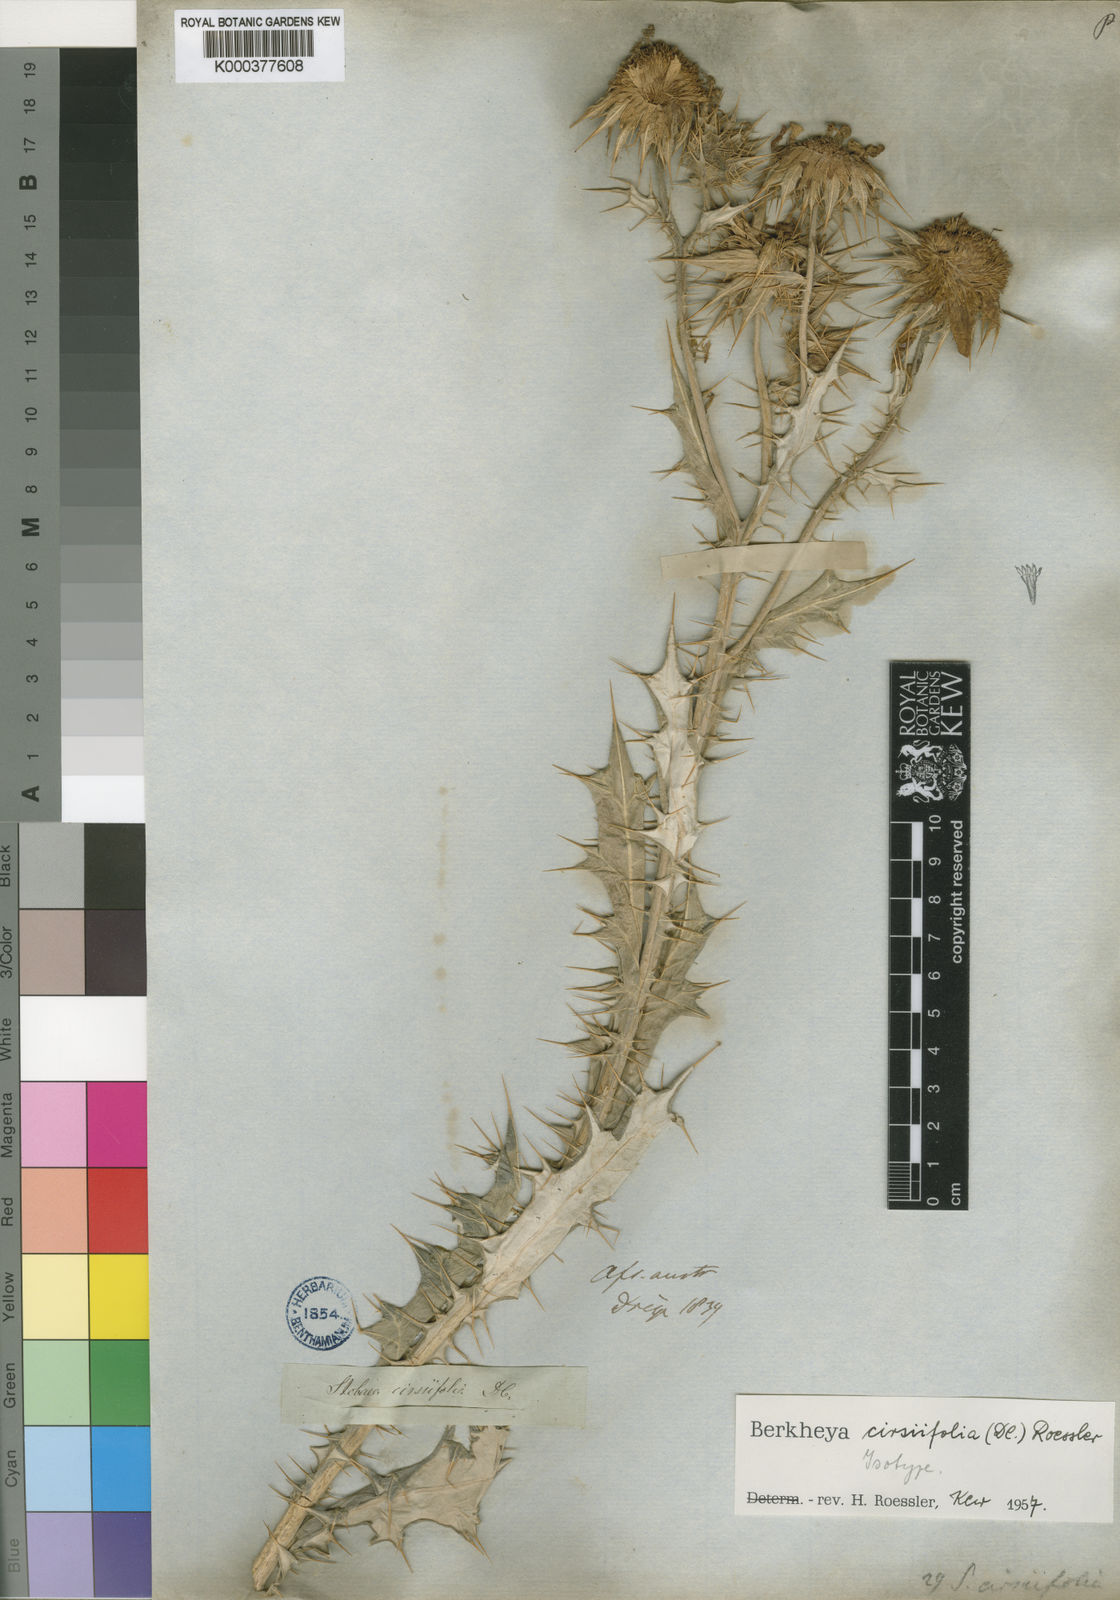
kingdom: Plantae
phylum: Tracheophyta
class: Magnoliopsida
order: Asterales
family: Asteraceae
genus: Berkheya
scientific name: Berkheya cirsiifolia
